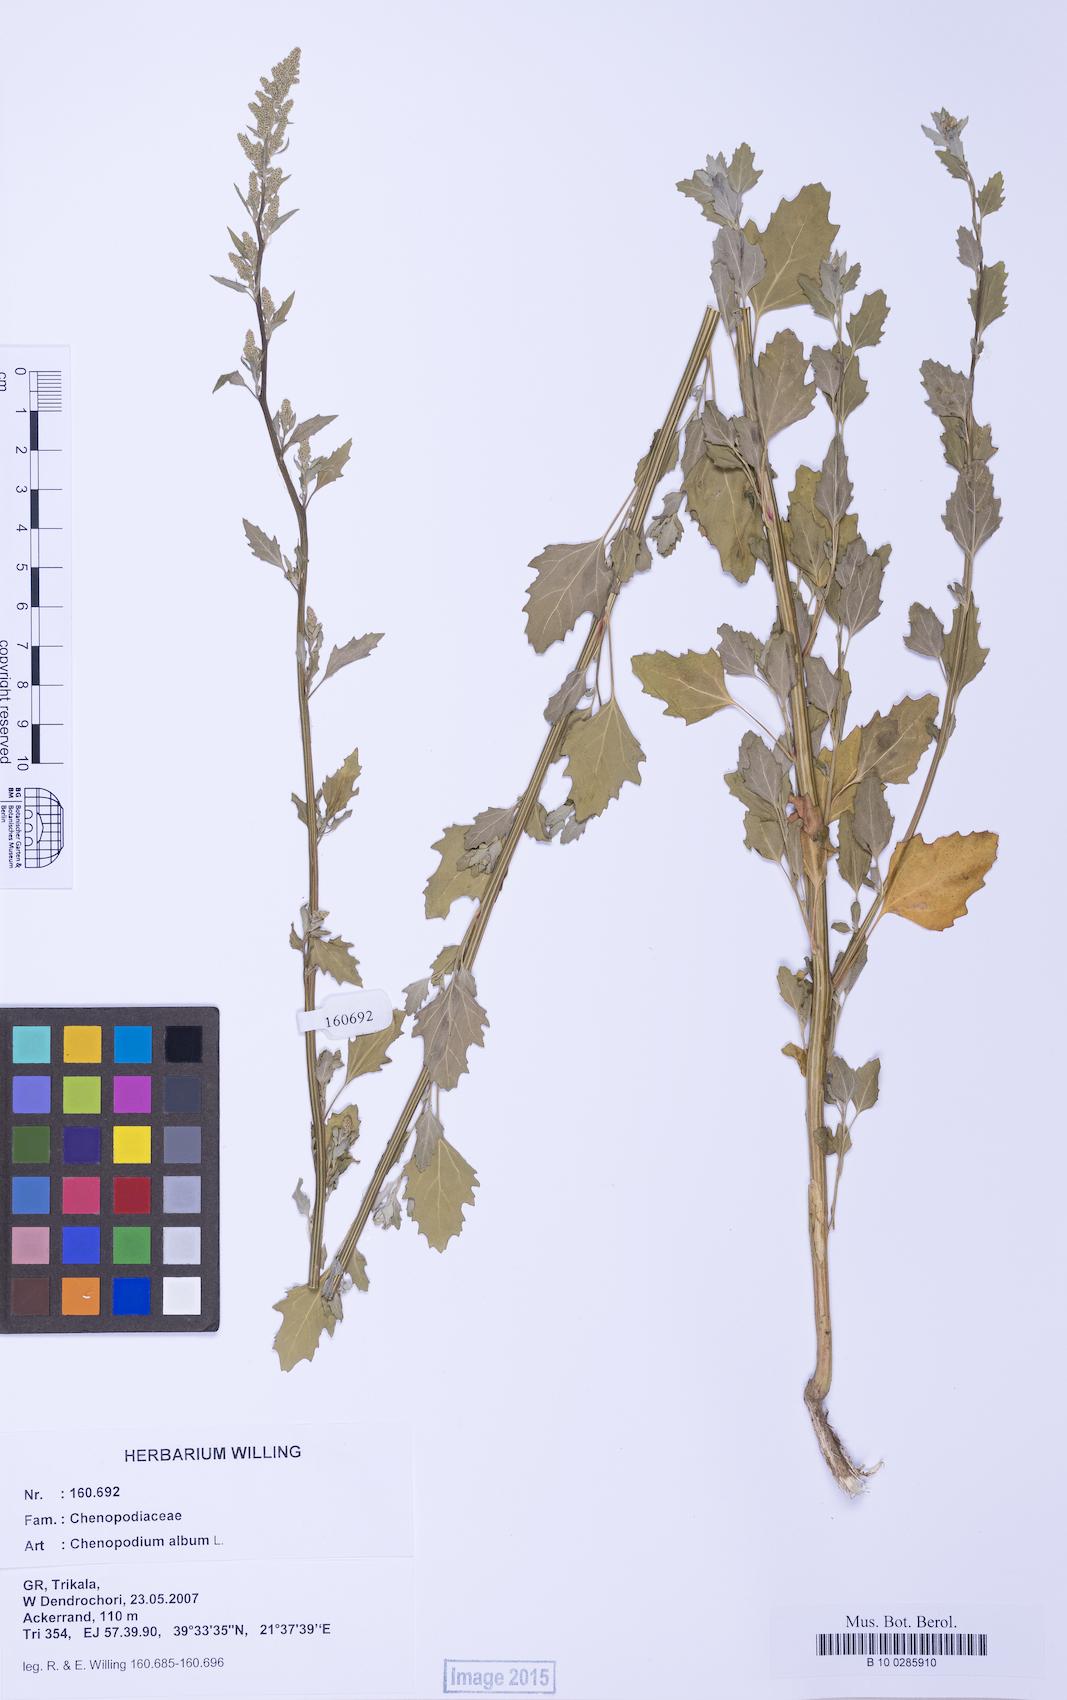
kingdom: Plantae
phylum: Tracheophyta
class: Magnoliopsida
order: Caryophyllales
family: Amaranthaceae
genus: Chenopodium
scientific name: Chenopodium album
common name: Fat-hen
